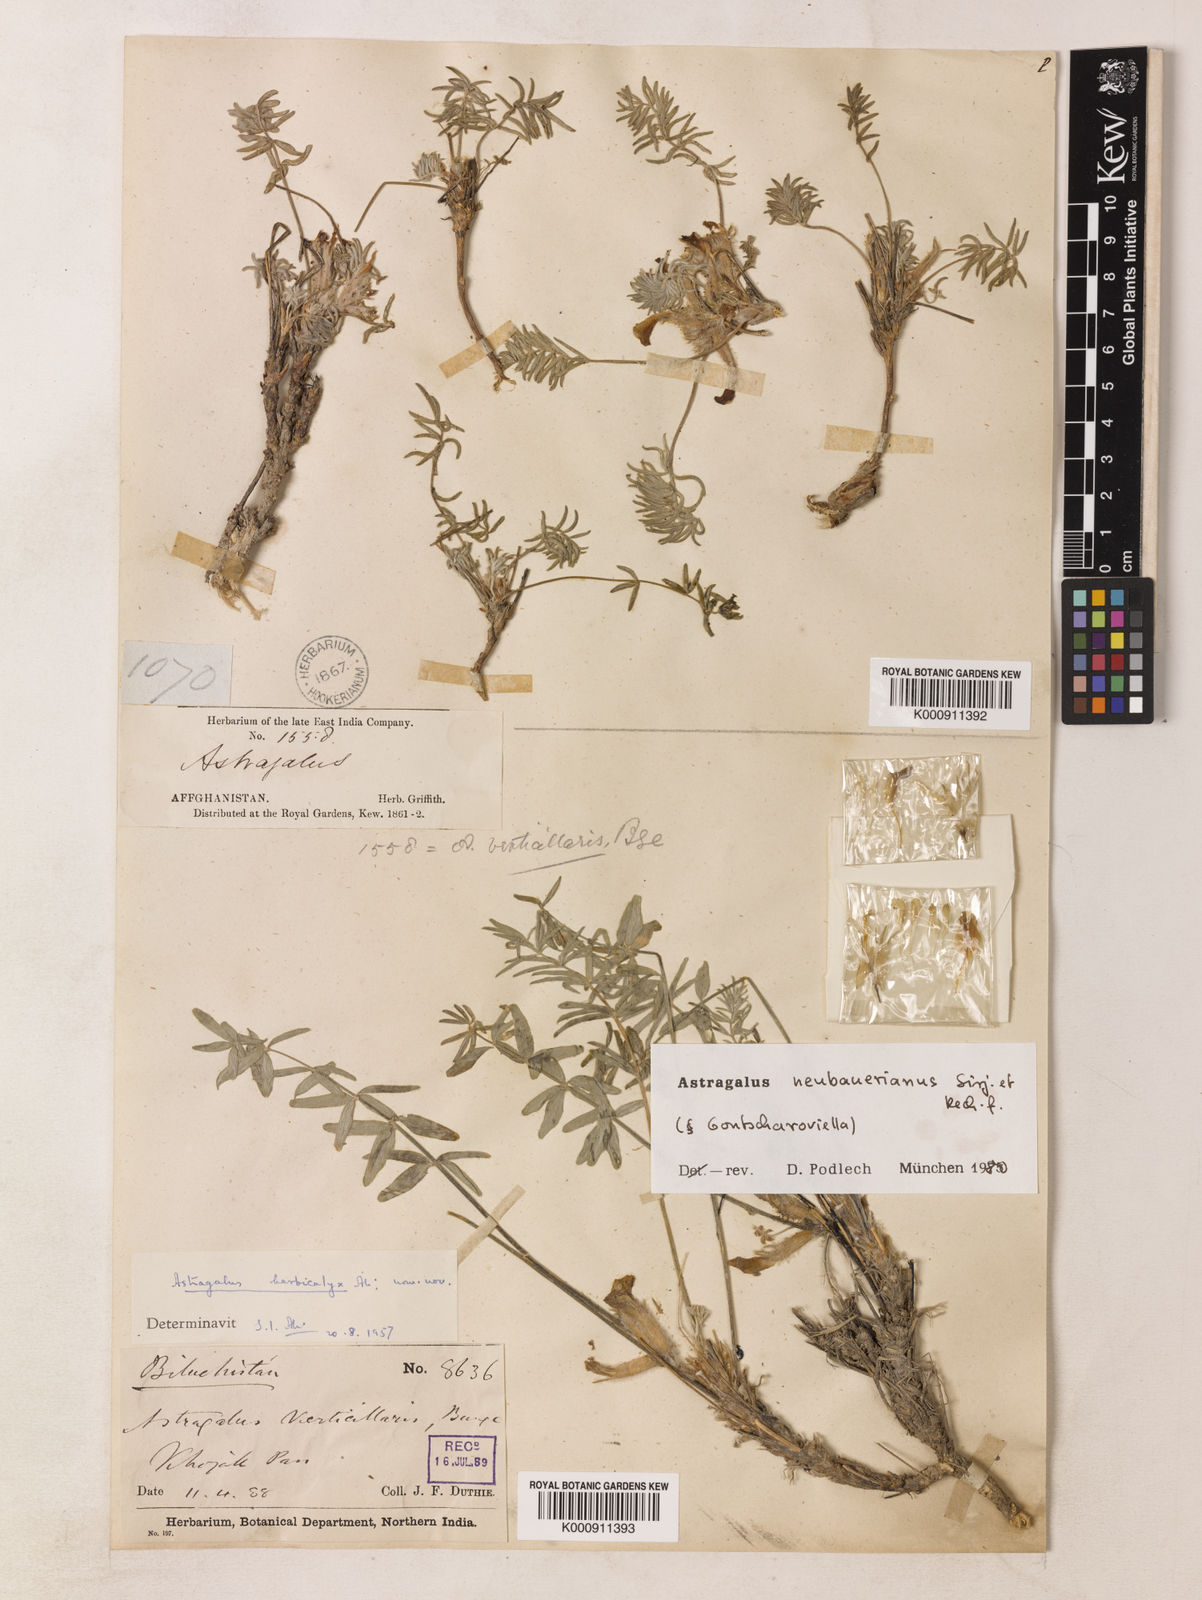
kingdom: Plantae
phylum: Tracheophyta
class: Magnoliopsida
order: Fabales
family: Fabaceae
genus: Astragalus
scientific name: Astragalus neubauerianus
